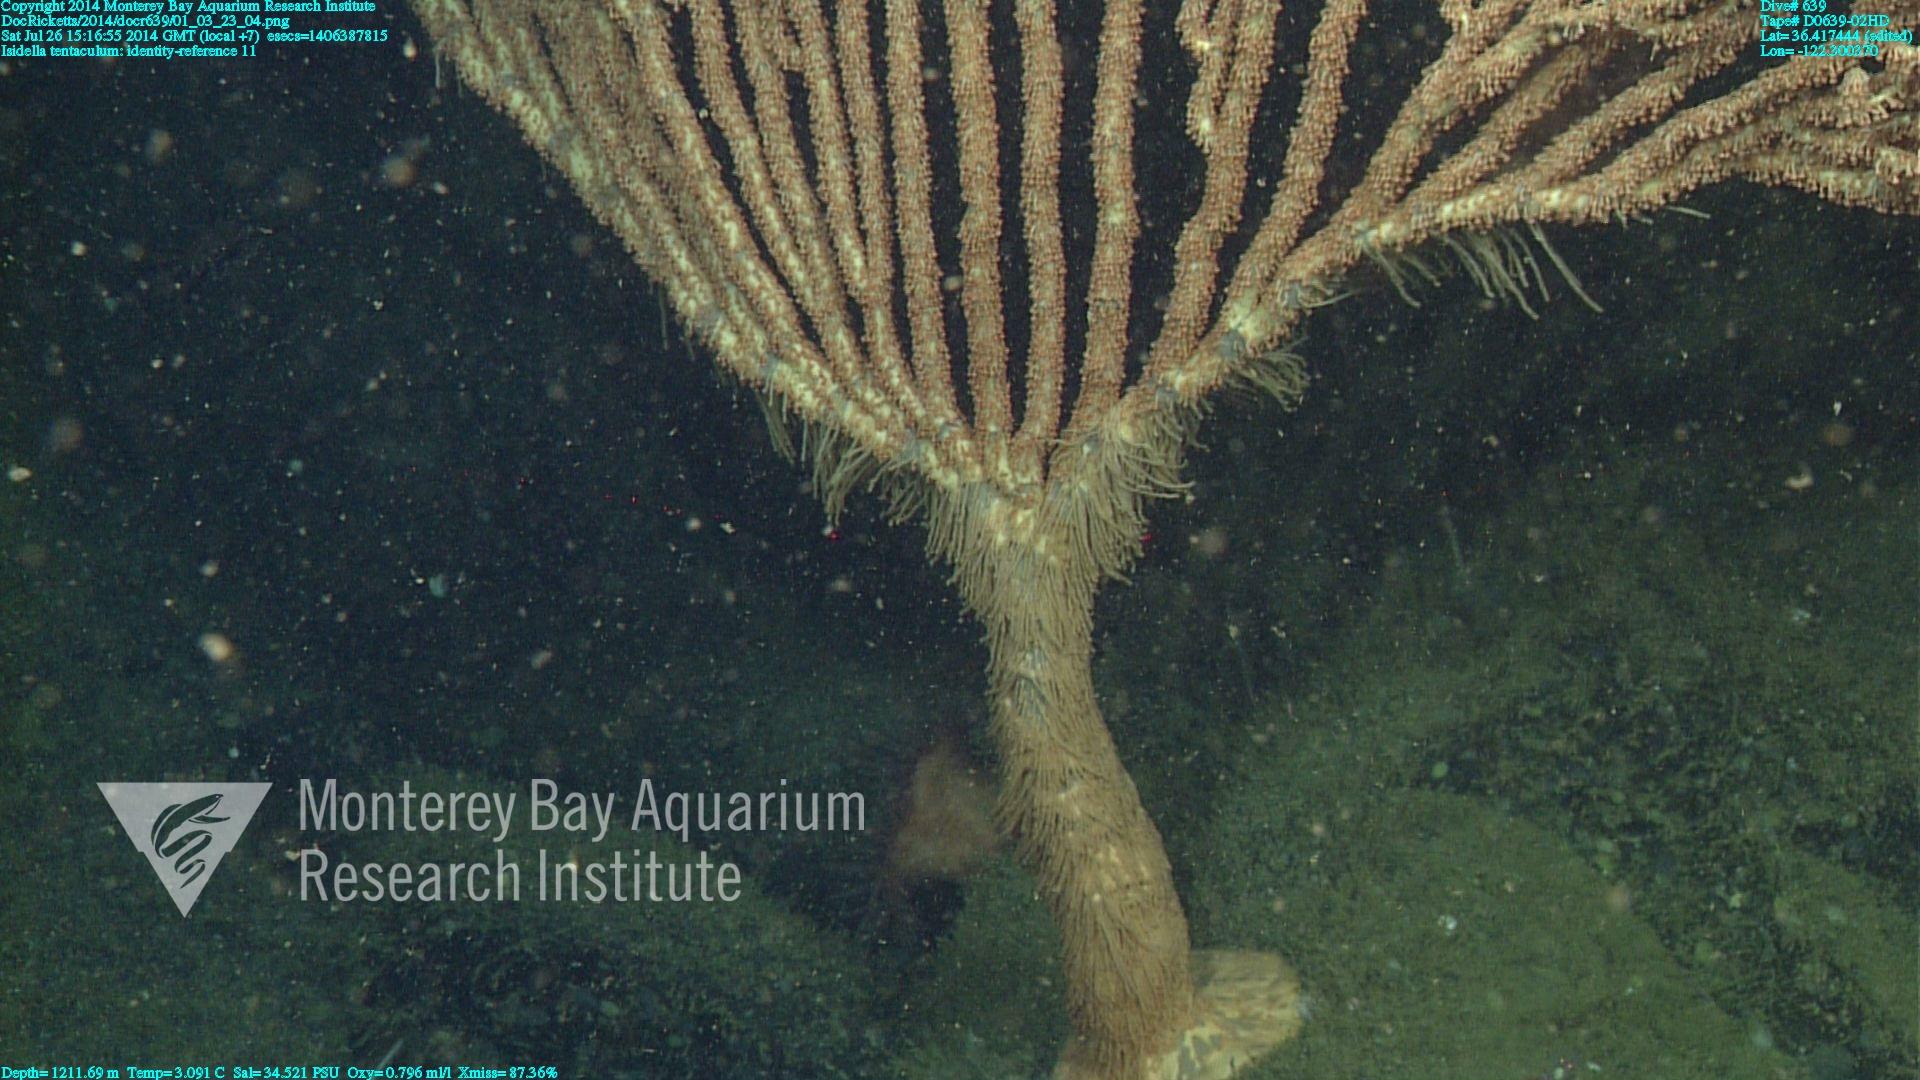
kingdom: Animalia
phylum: Cnidaria
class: Anthozoa
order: Scleralcyonacea
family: Keratoisididae
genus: Isidella
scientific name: Isidella tentaculum
